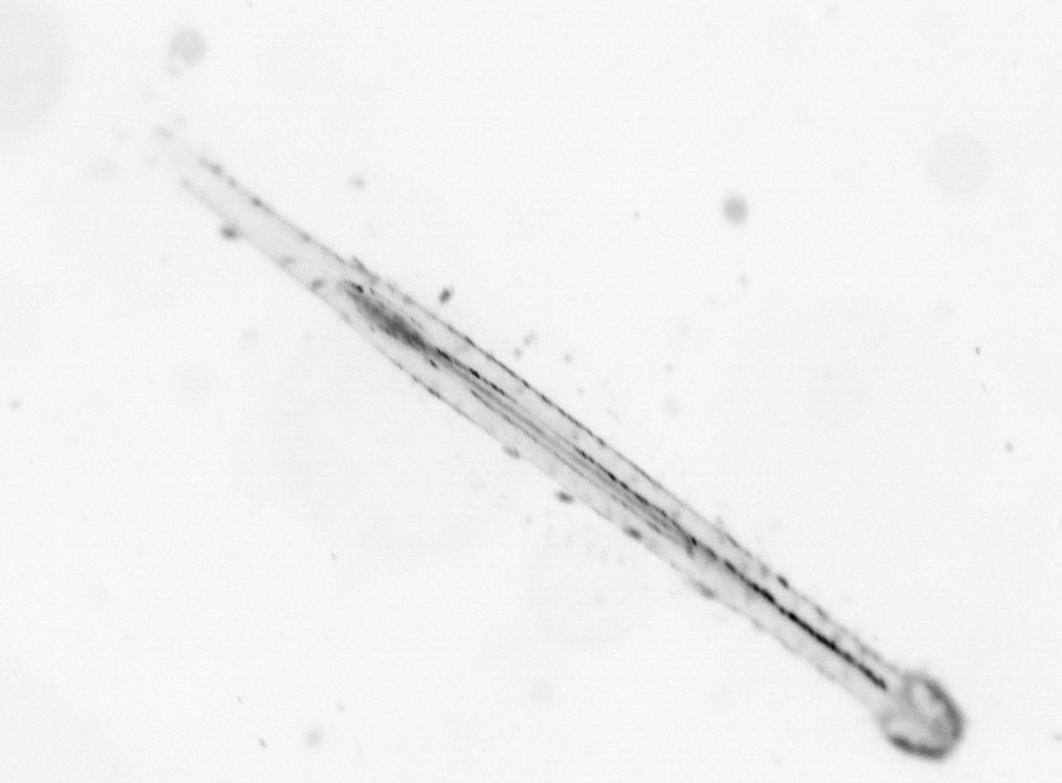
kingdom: Animalia
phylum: Chaetognatha
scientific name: Chaetognatha
